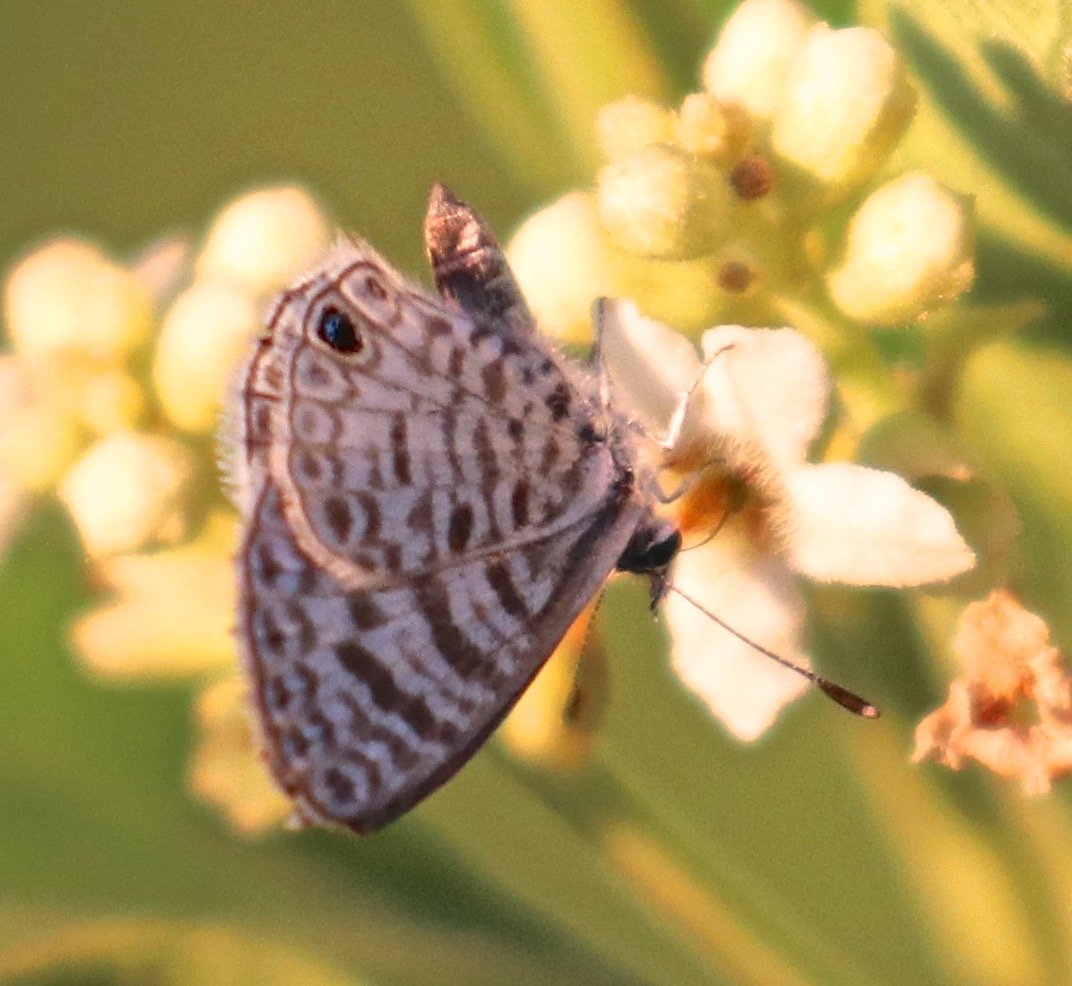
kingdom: Animalia
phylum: Arthropoda
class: Insecta
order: Lepidoptera
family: Lycaenidae
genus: Leptotes
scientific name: Leptotes cassius
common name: Cassius Blue
